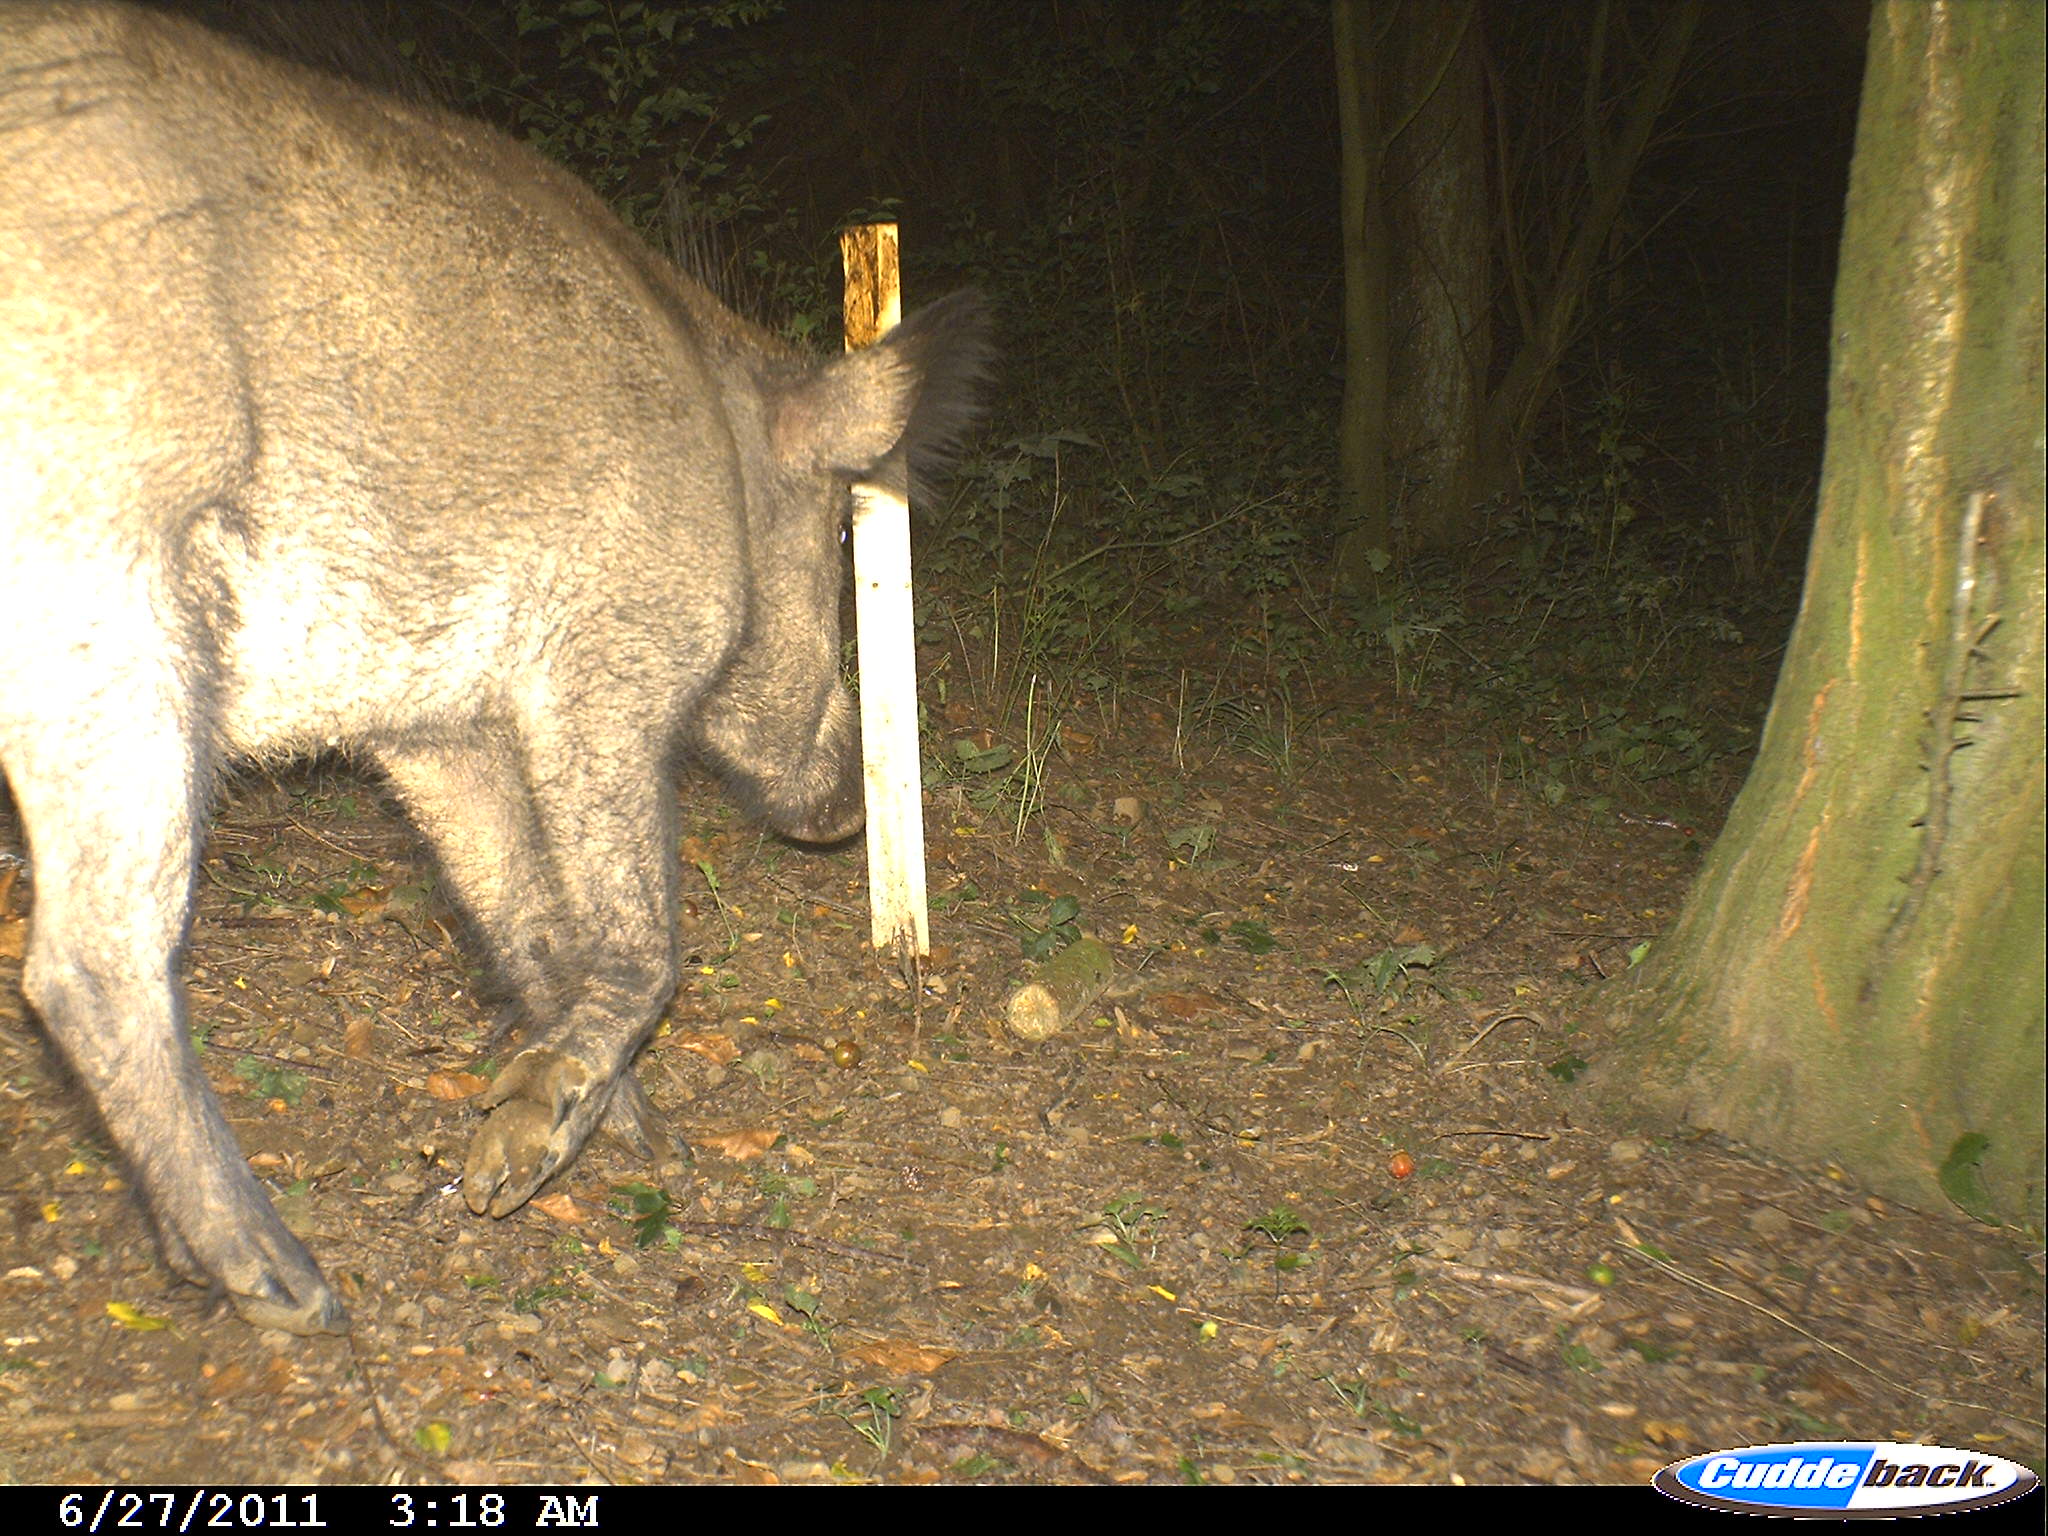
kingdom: Animalia
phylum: Chordata
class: Mammalia
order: Artiodactyla
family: Suidae
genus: Sus
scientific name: Sus scrofa
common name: Wild boar
